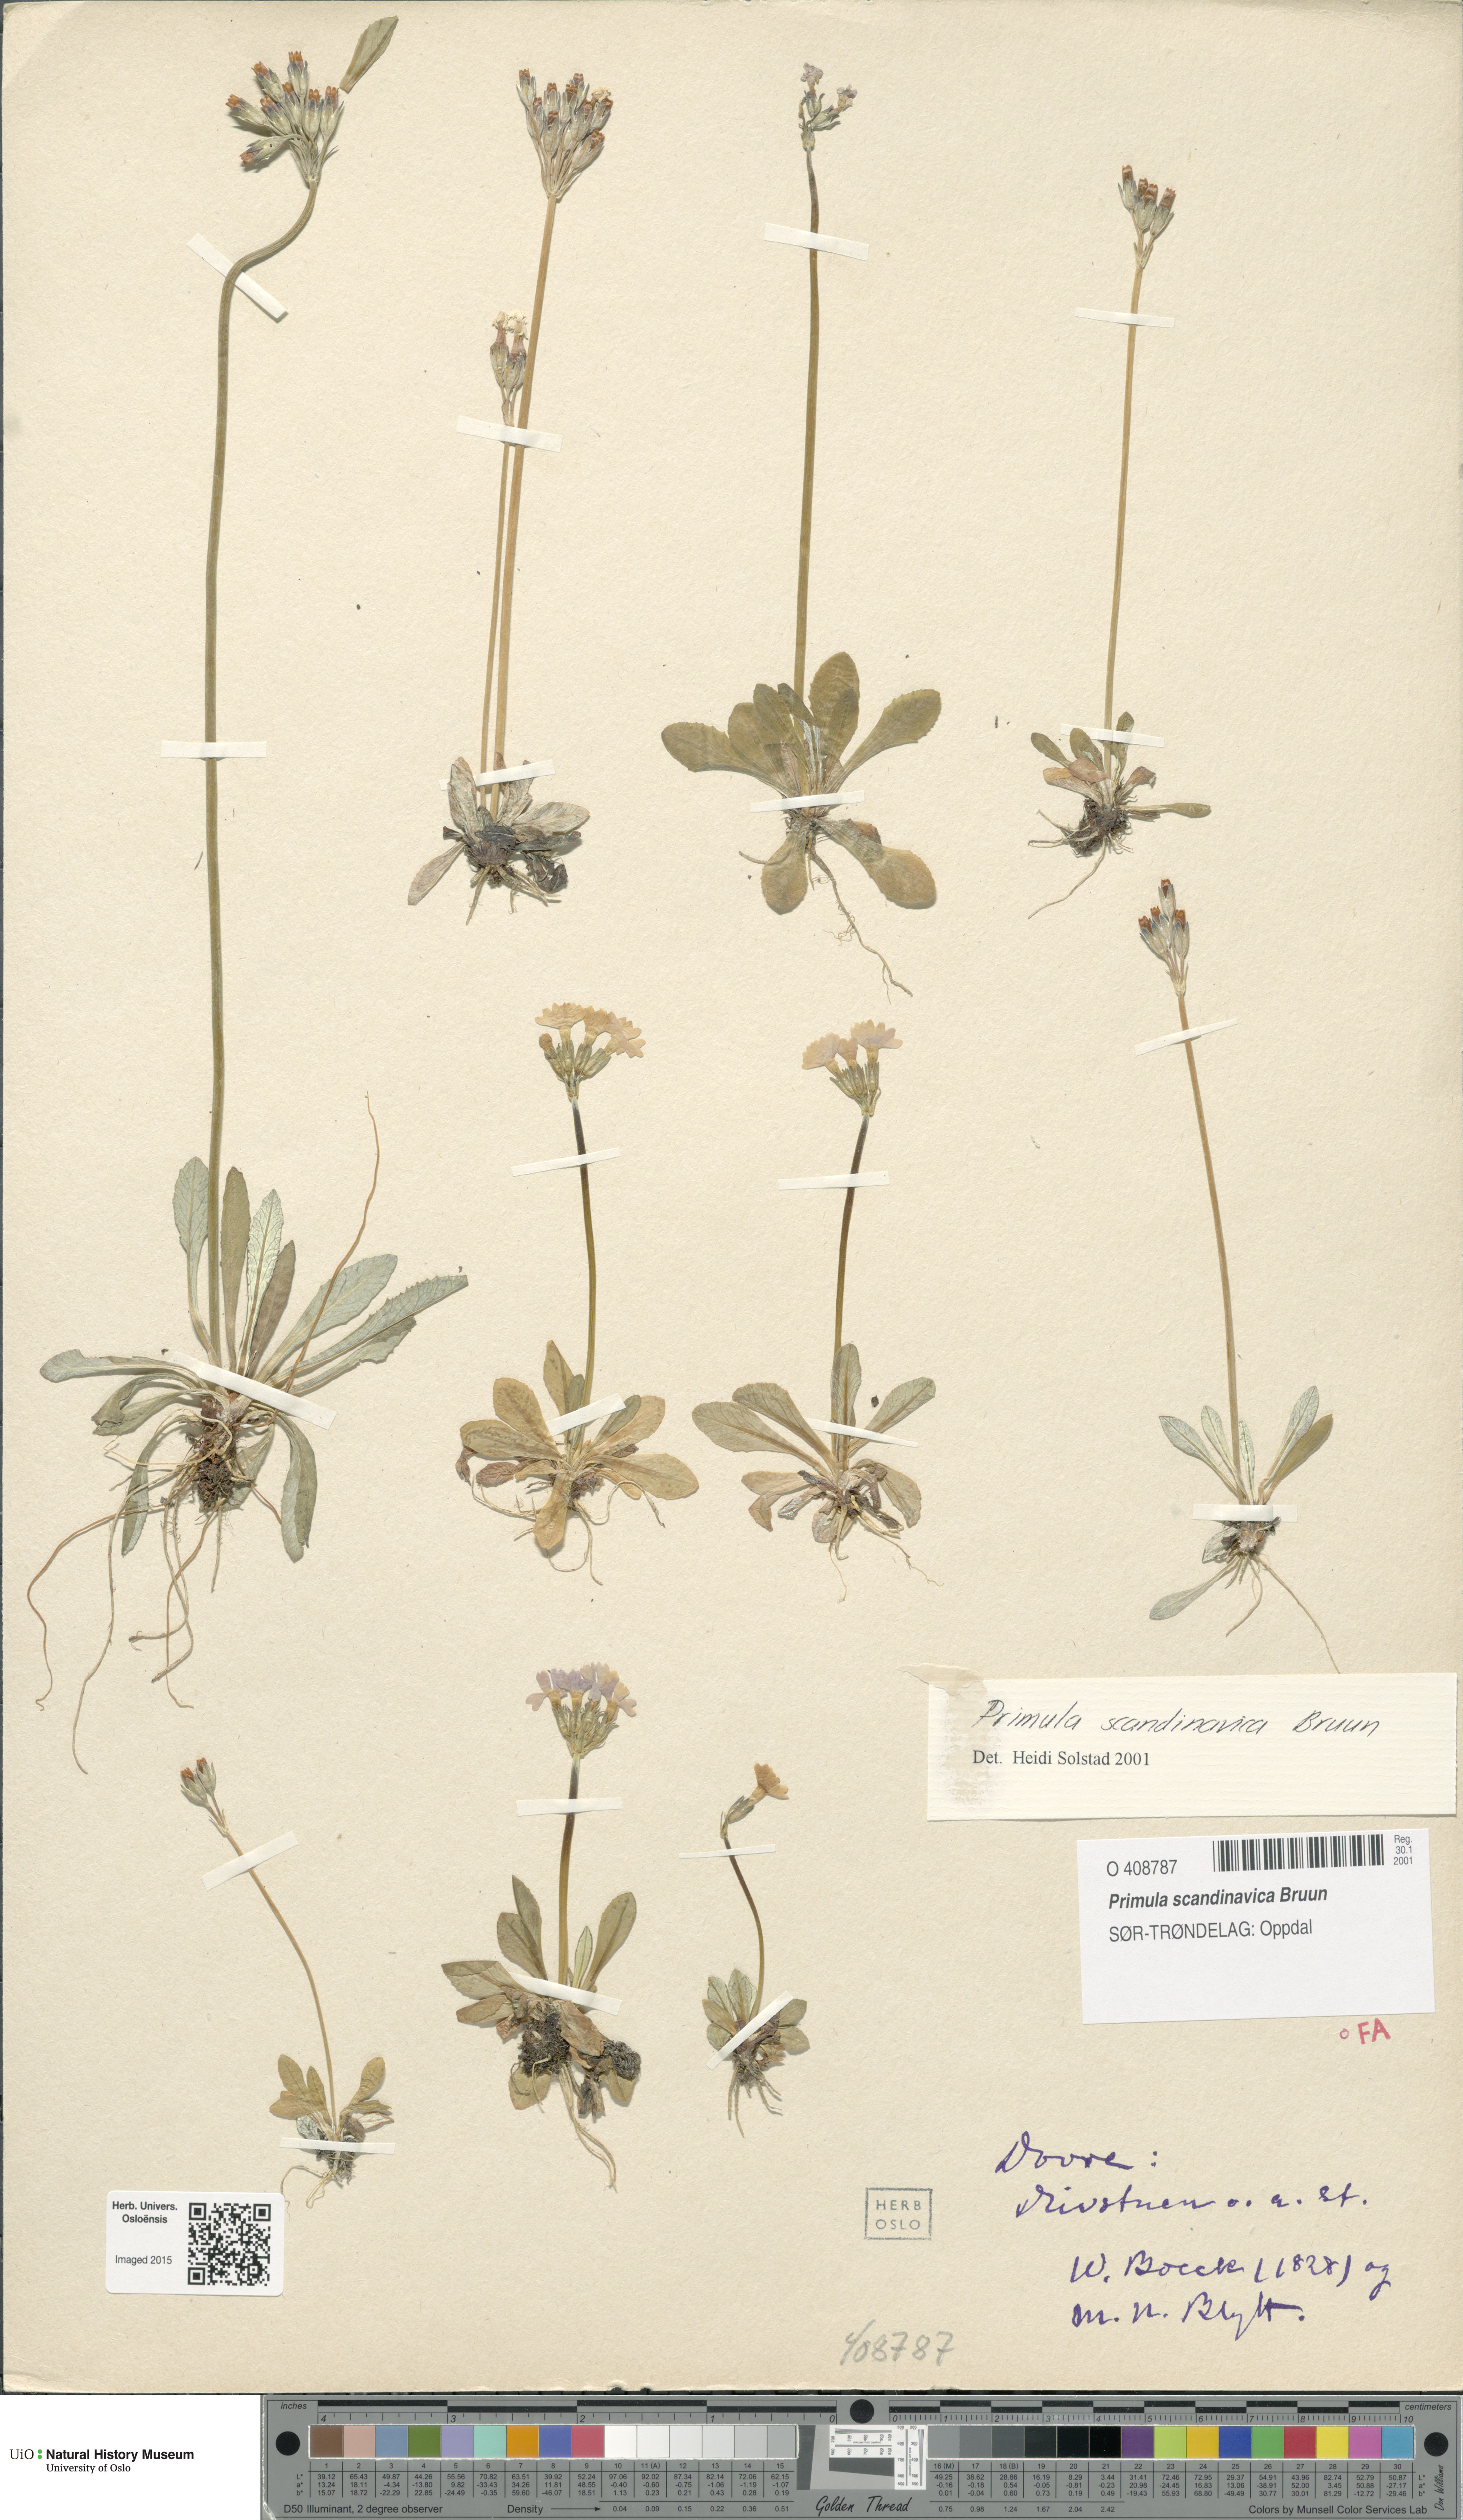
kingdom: Plantae
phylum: Tracheophyta
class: Magnoliopsida
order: Ericales
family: Primulaceae
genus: Primula
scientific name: Primula scandinavica
